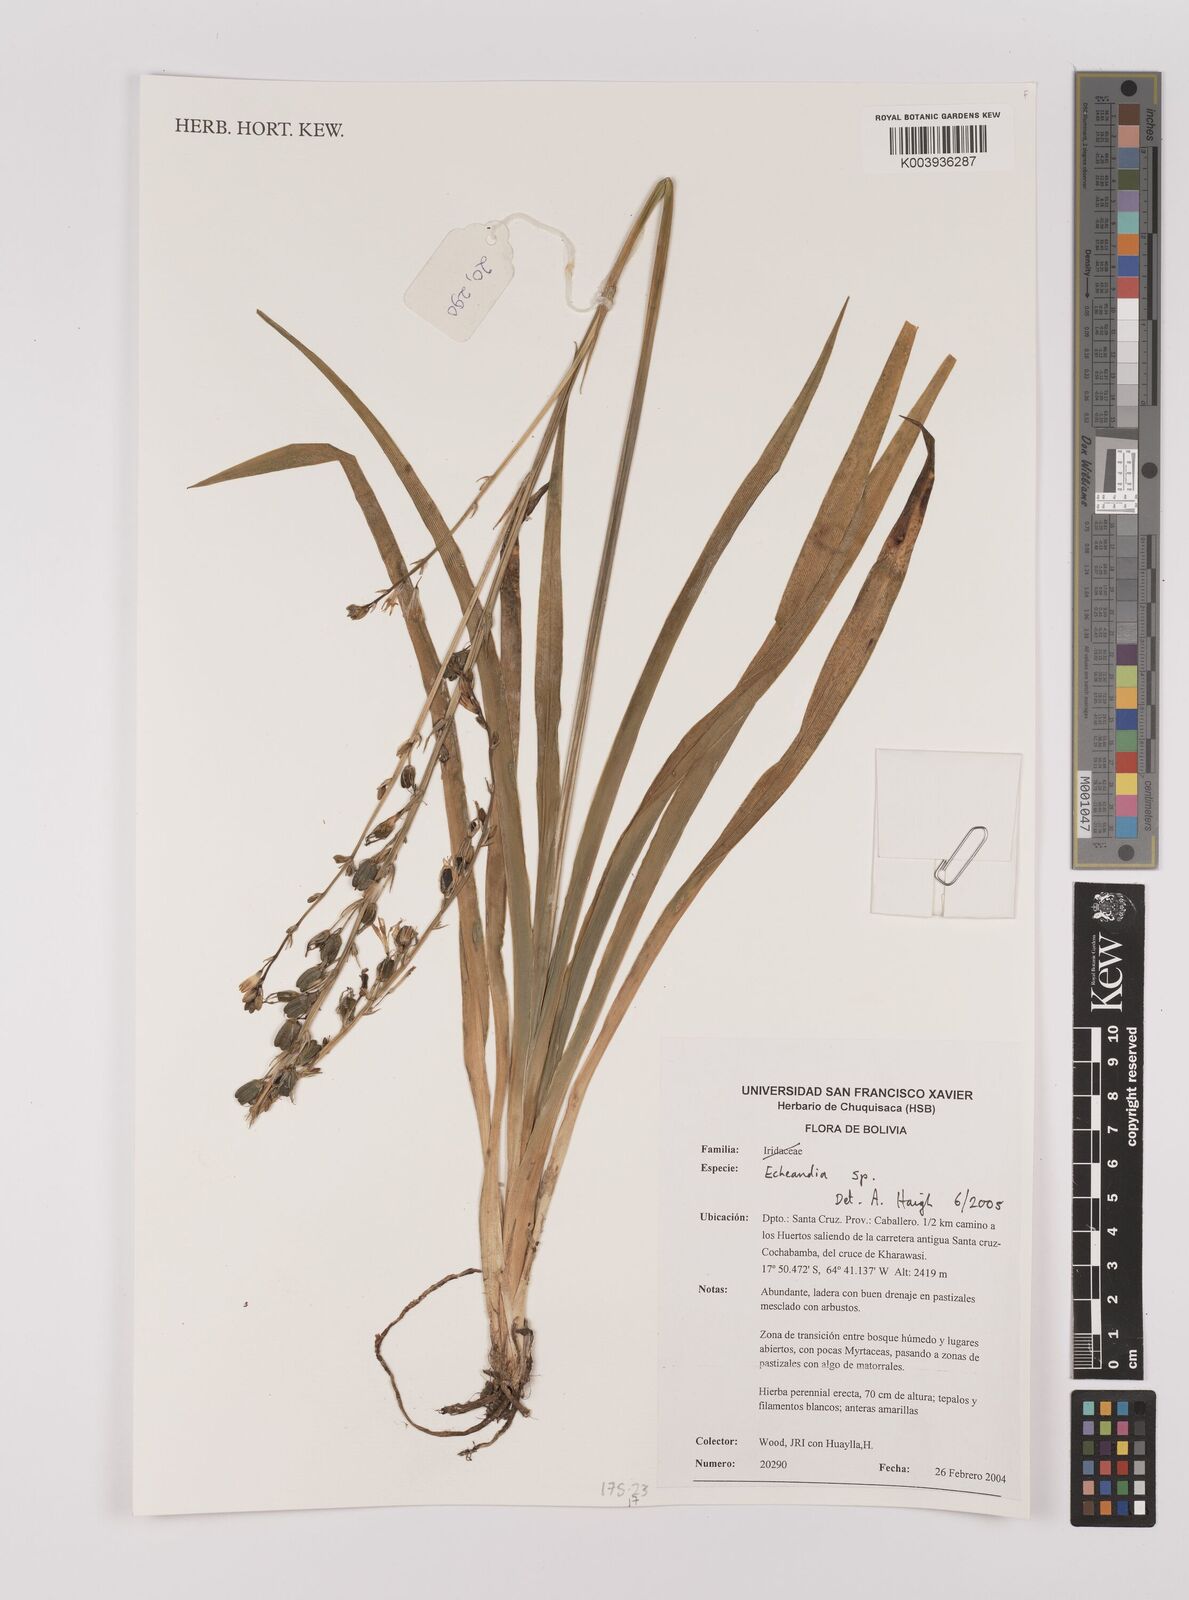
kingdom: Plantae
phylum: Tracheophyta
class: Liliopsida
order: Asparagales
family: Asparagaceae
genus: Echeandia
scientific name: Echeandia
